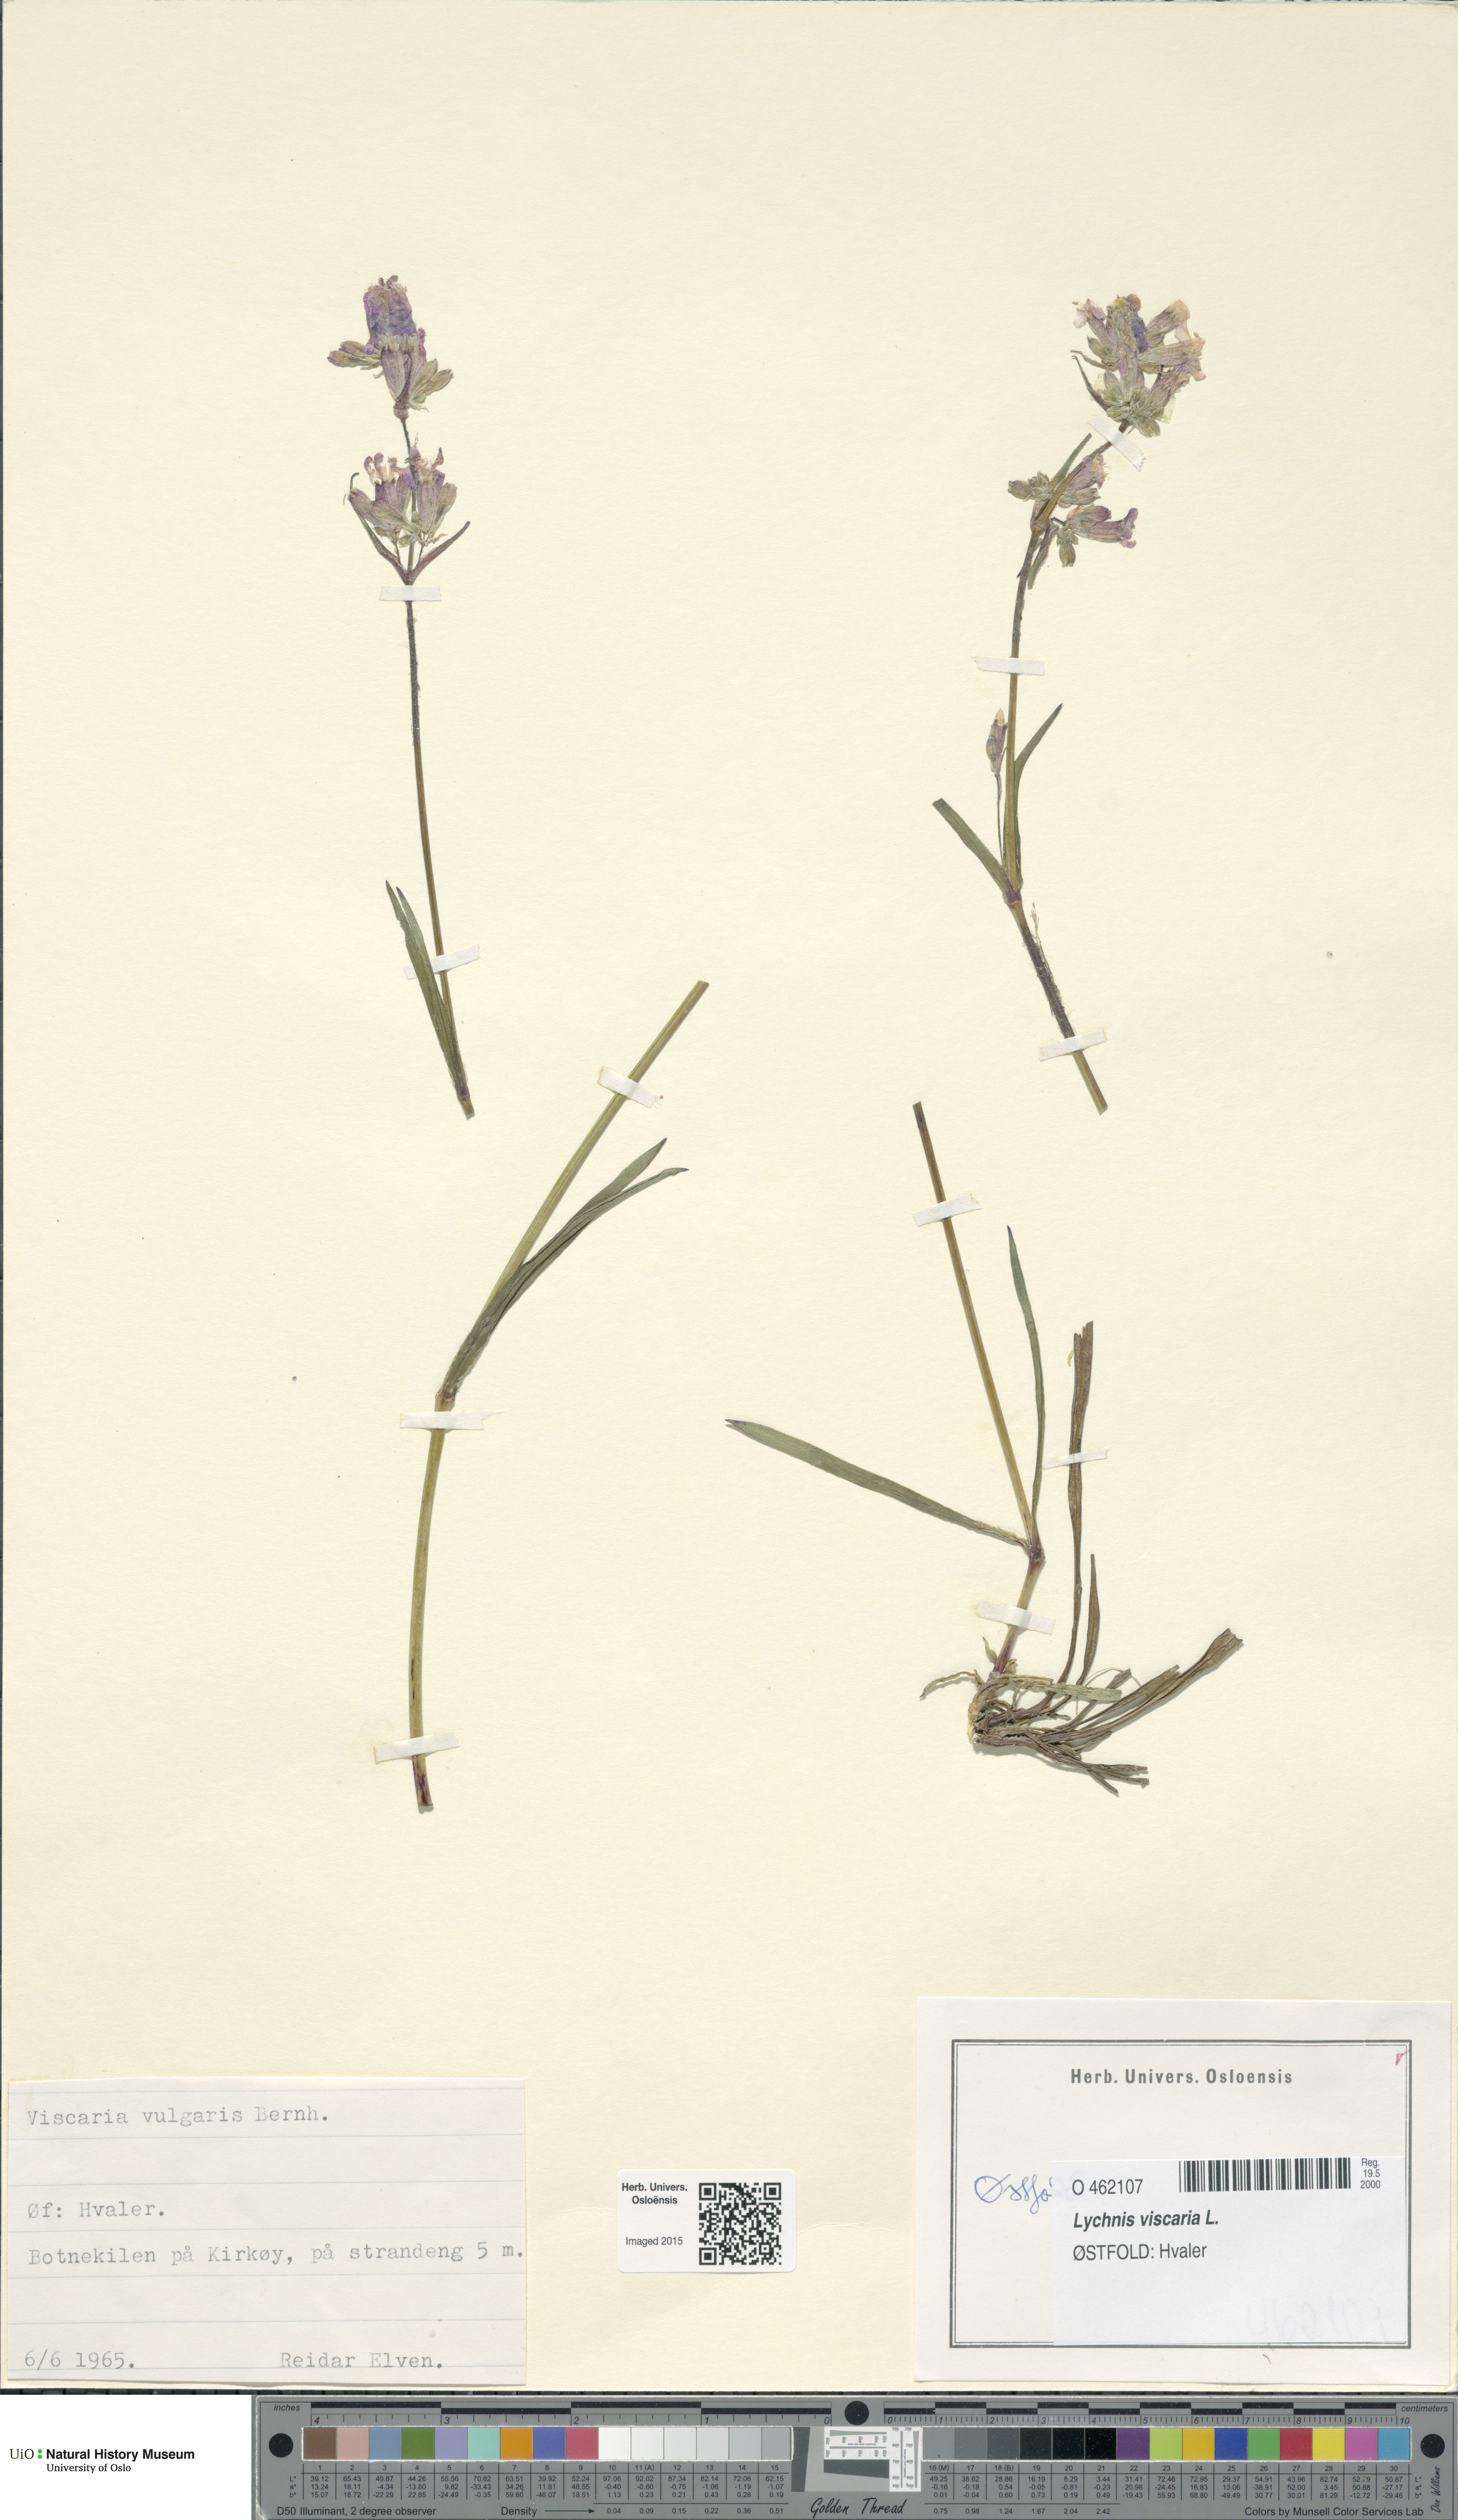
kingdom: Plantae
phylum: Tracheophyta
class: Magnoliopsida
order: Caryophyllales
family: Caryophyllaceae
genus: Viscaria
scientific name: Viscaria vulgaris
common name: Clammy campion
